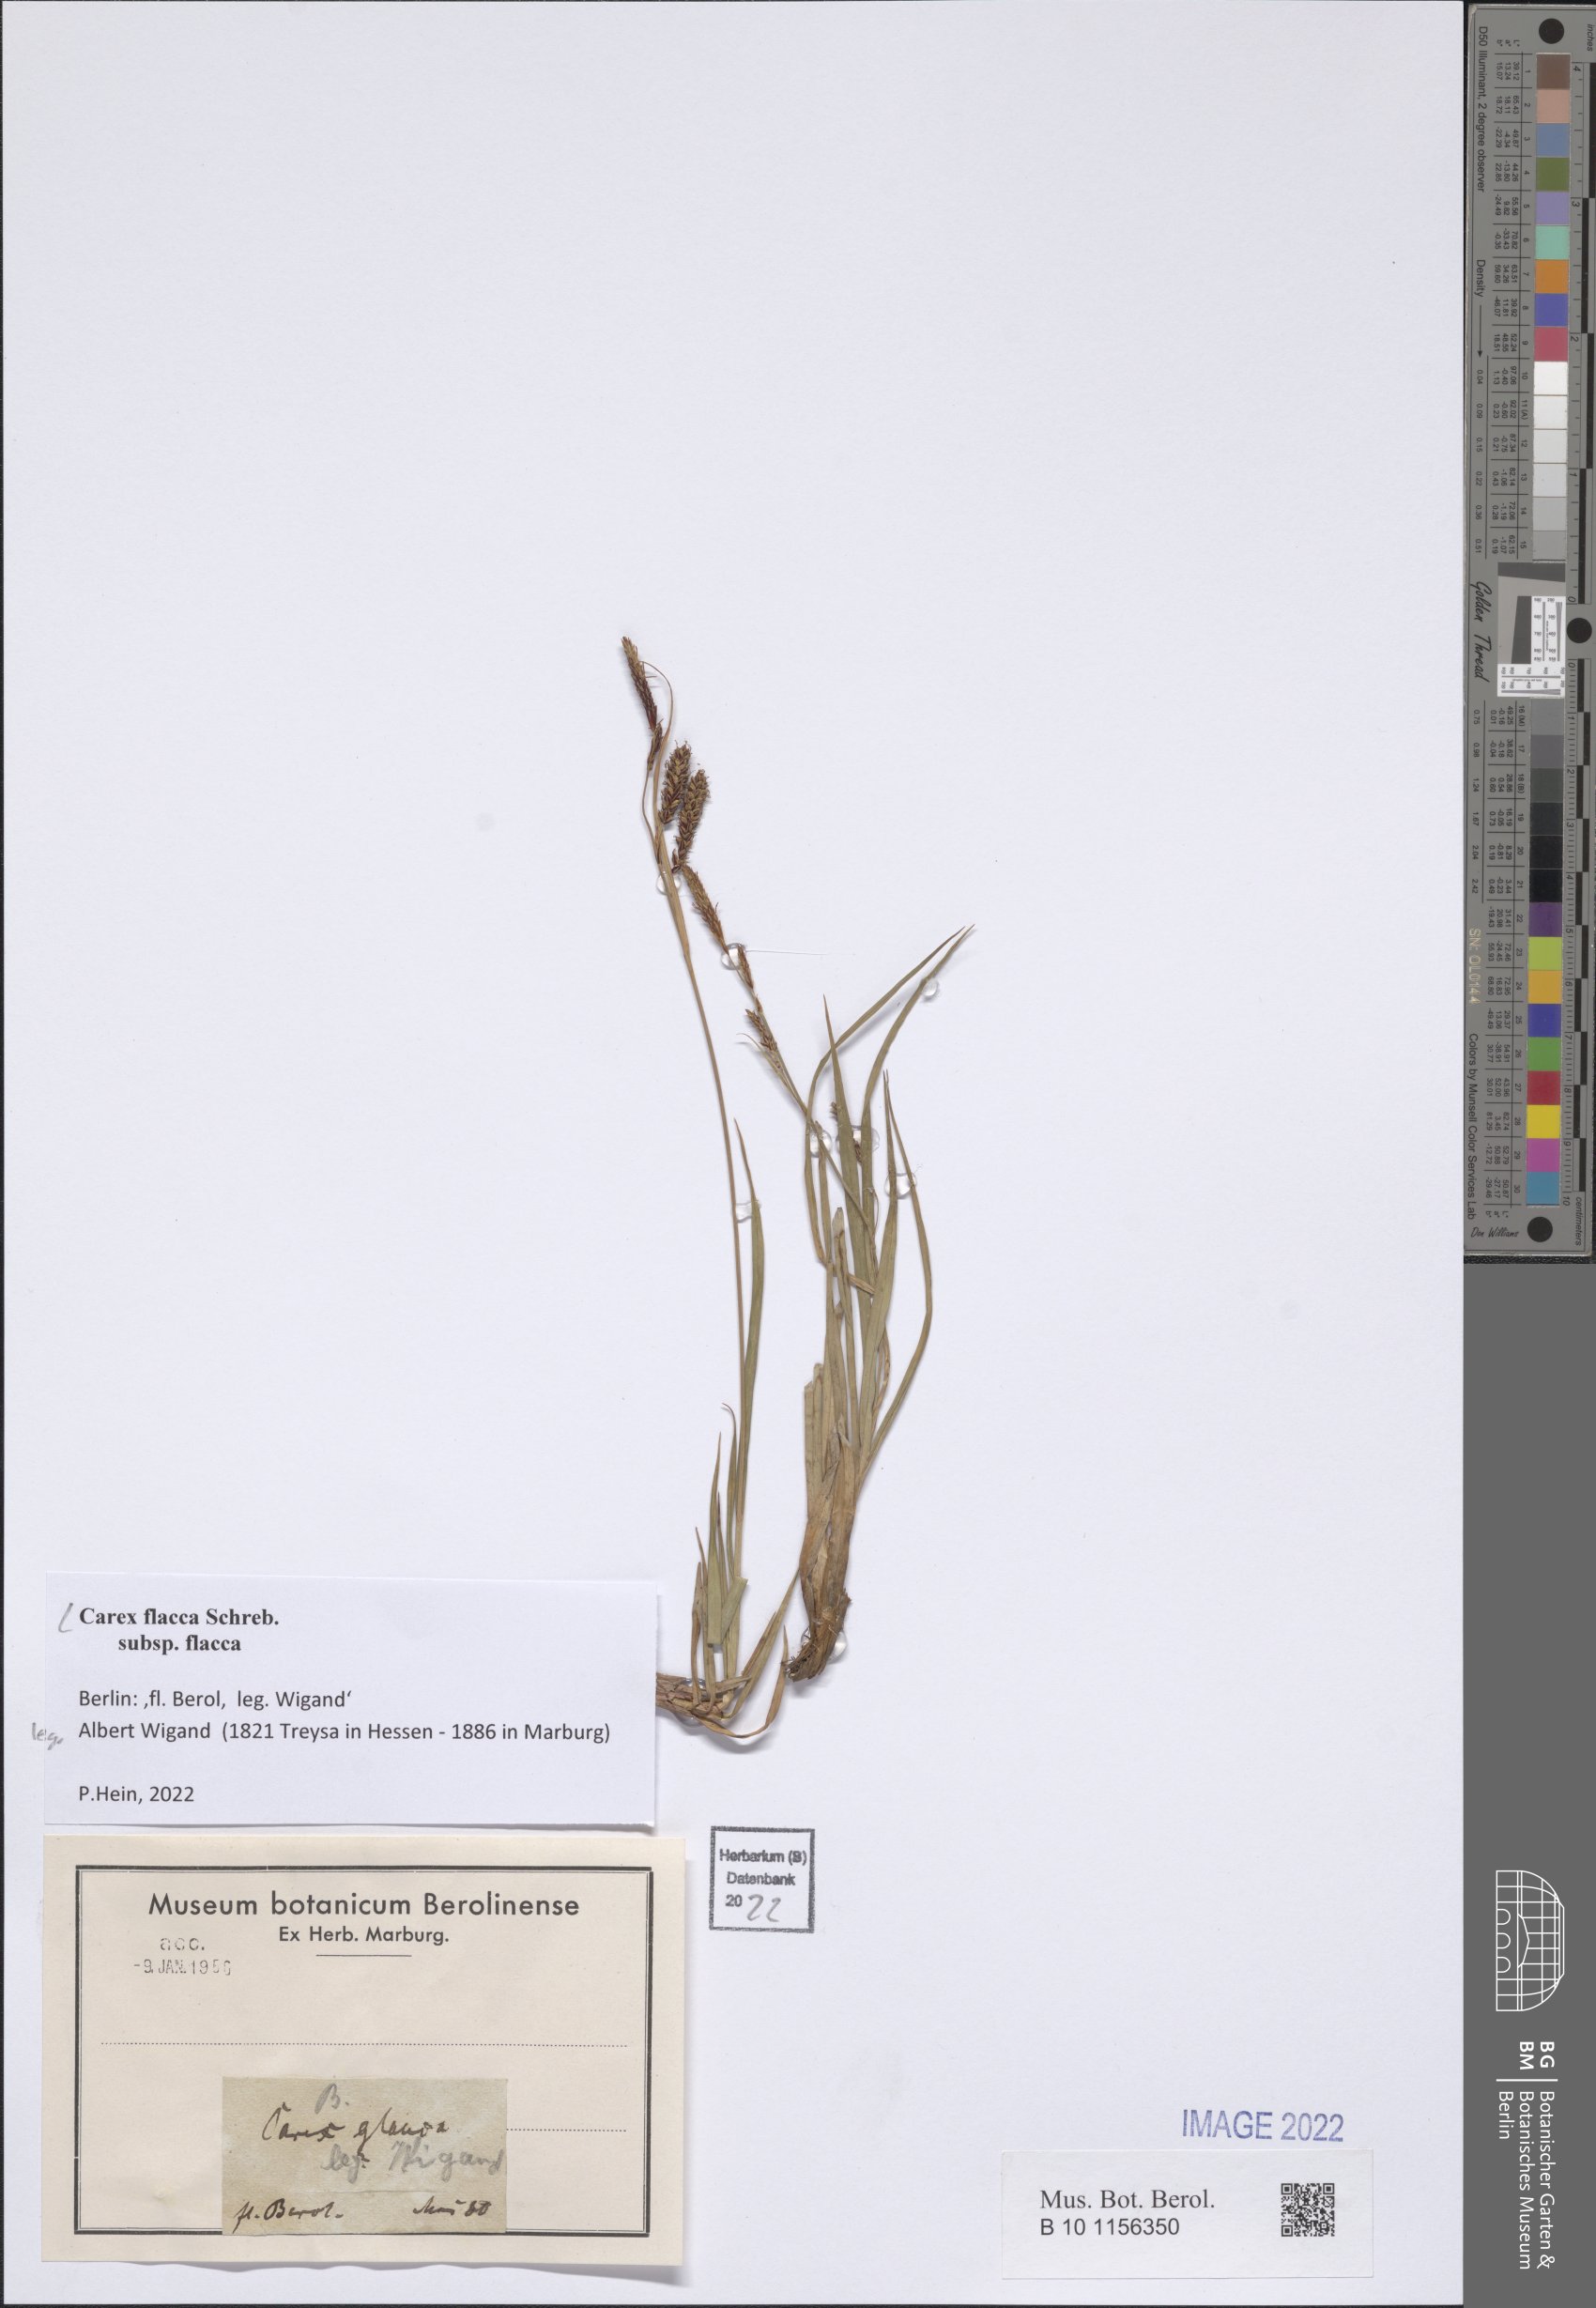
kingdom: Plantae
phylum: Tracheophyta
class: Liliopsida
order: Poales
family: Cyperaceae
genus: Carex
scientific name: Carex flacca
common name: Glaucous sedge
